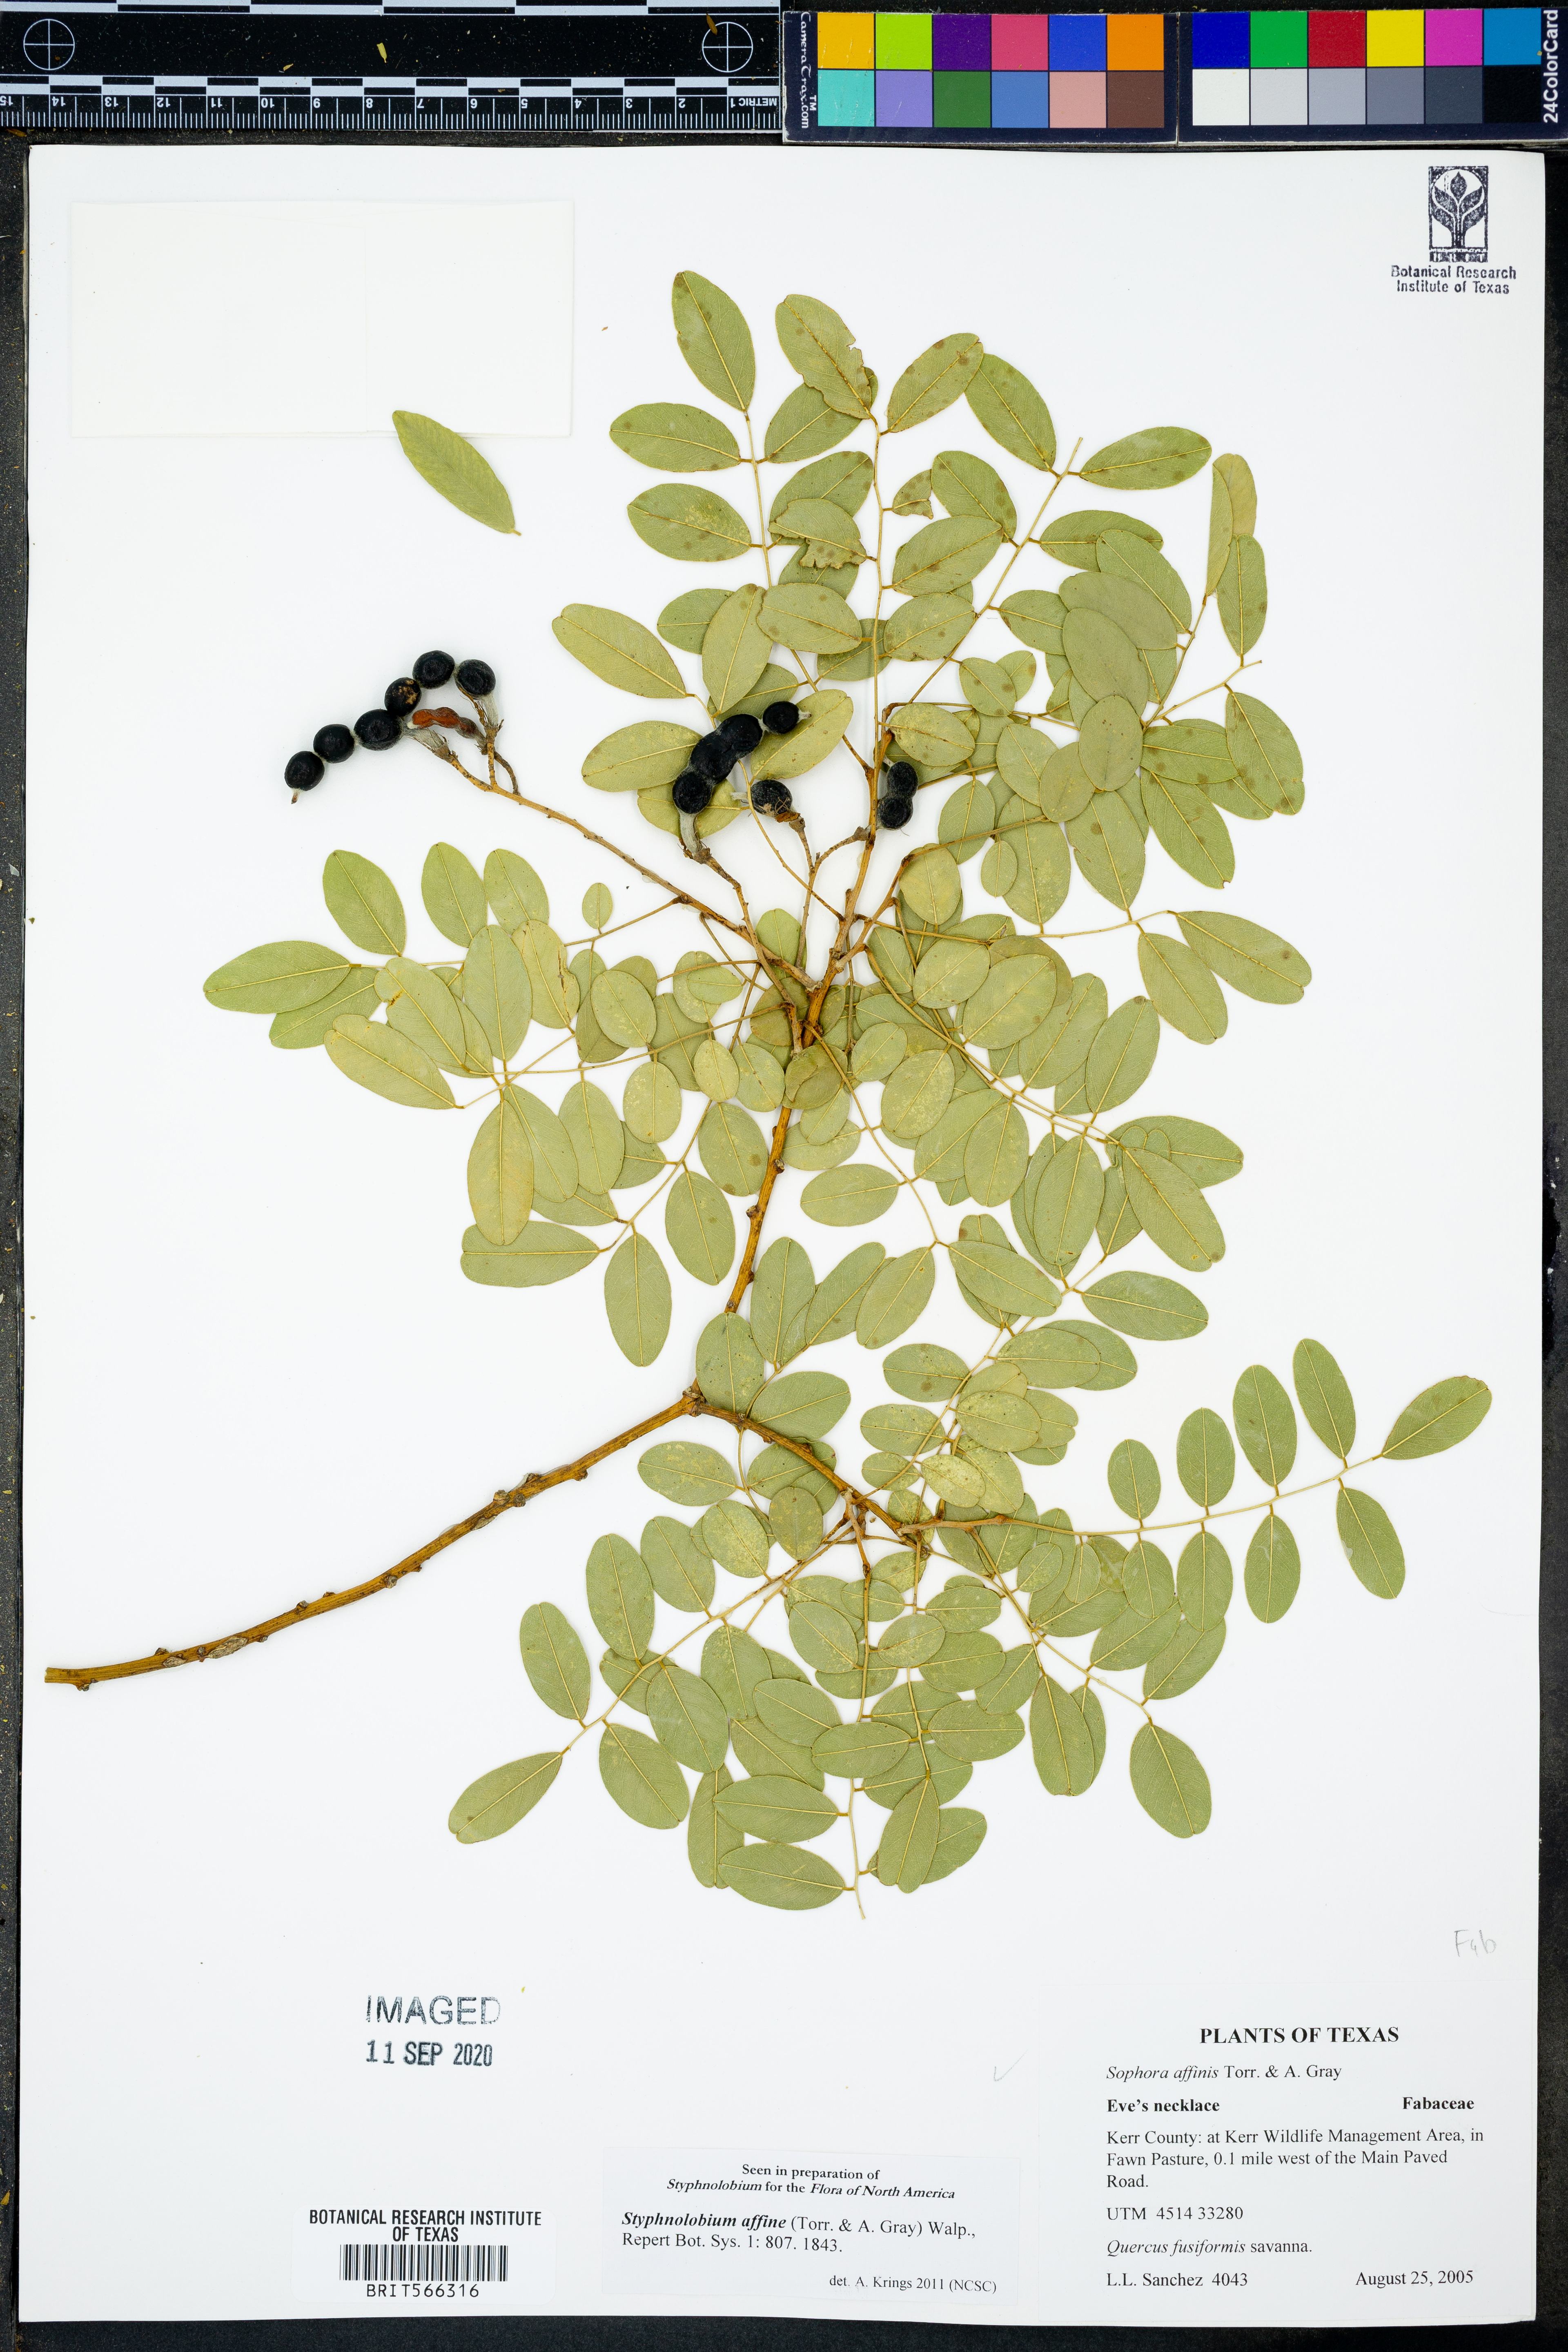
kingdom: Plantae
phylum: Tracheophyta
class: Magnoliopsida
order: Fabales
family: Fabaceae
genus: Styphnolobium
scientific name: Styphnolobium affine
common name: Texas sophora
